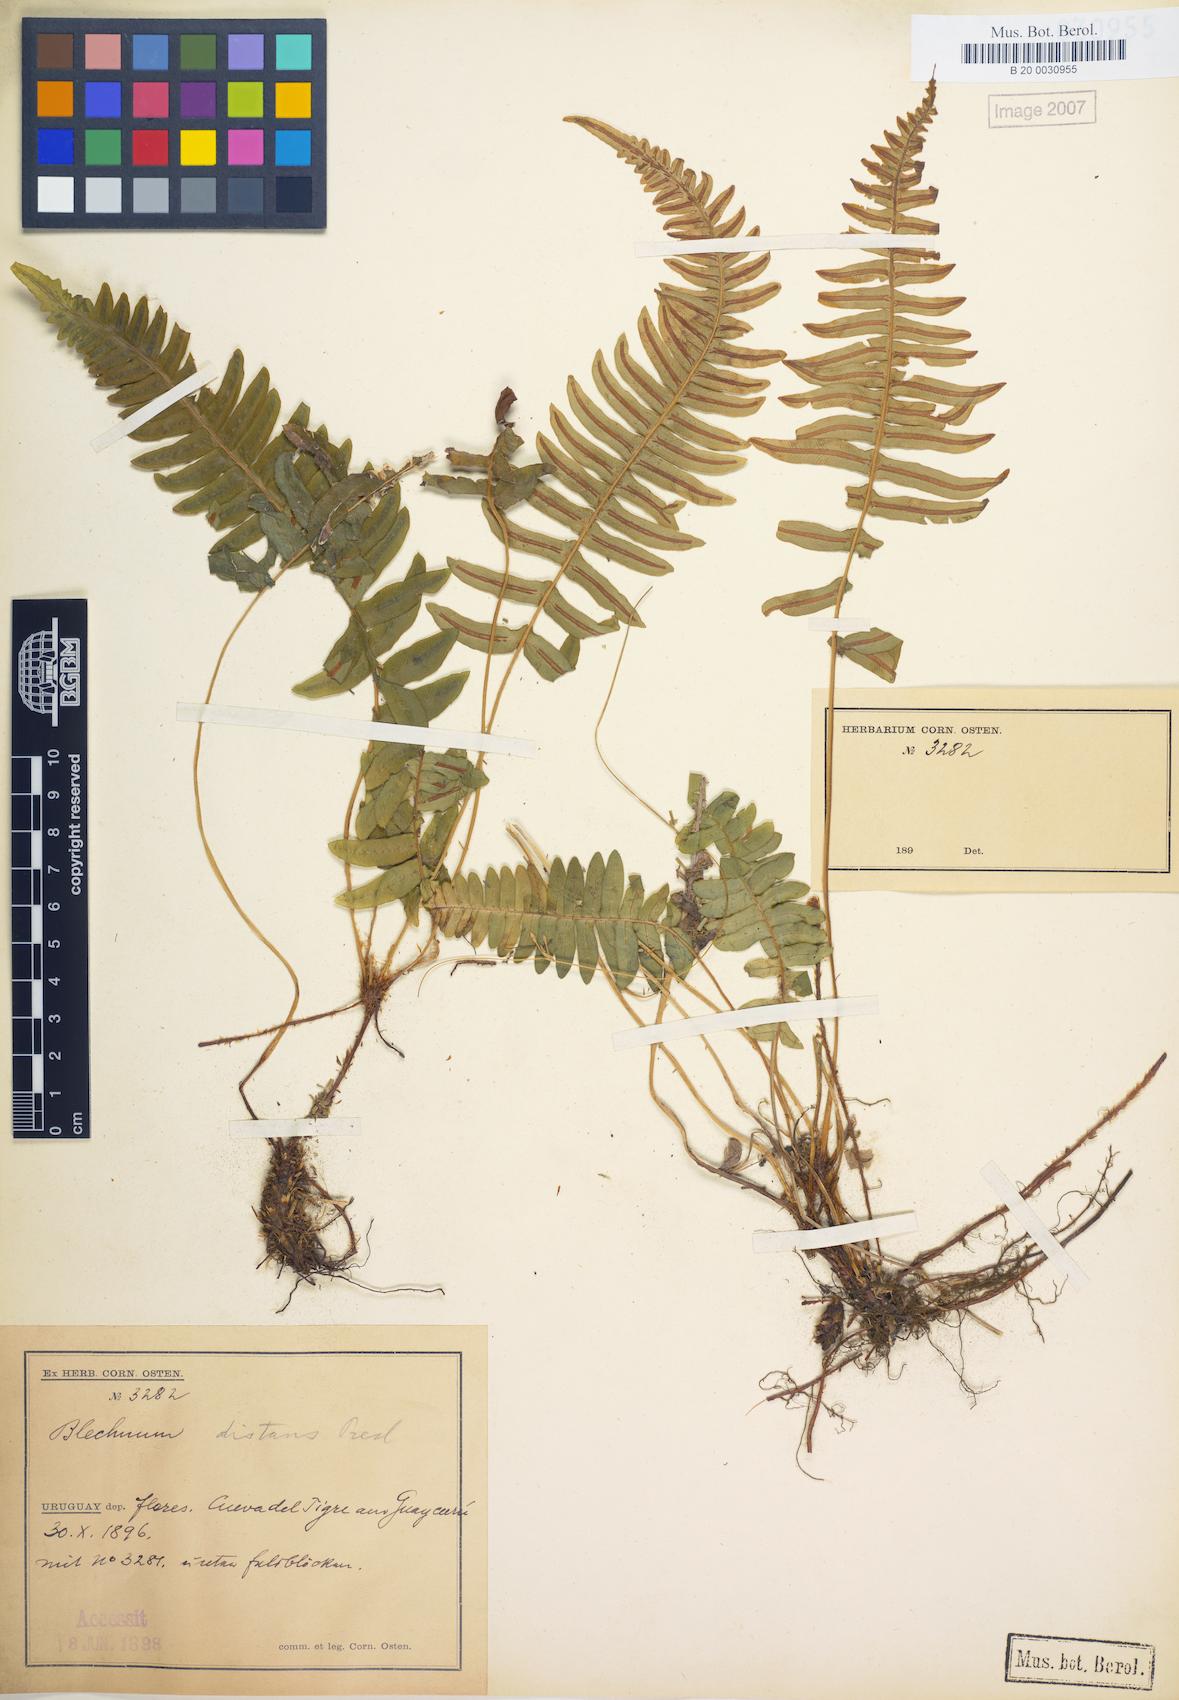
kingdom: Plantae
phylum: Tracheophyta
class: Polypodiopsida
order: Polypodiales
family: Blechnaceae
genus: Blechnum
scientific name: Blechnum laevigatum
